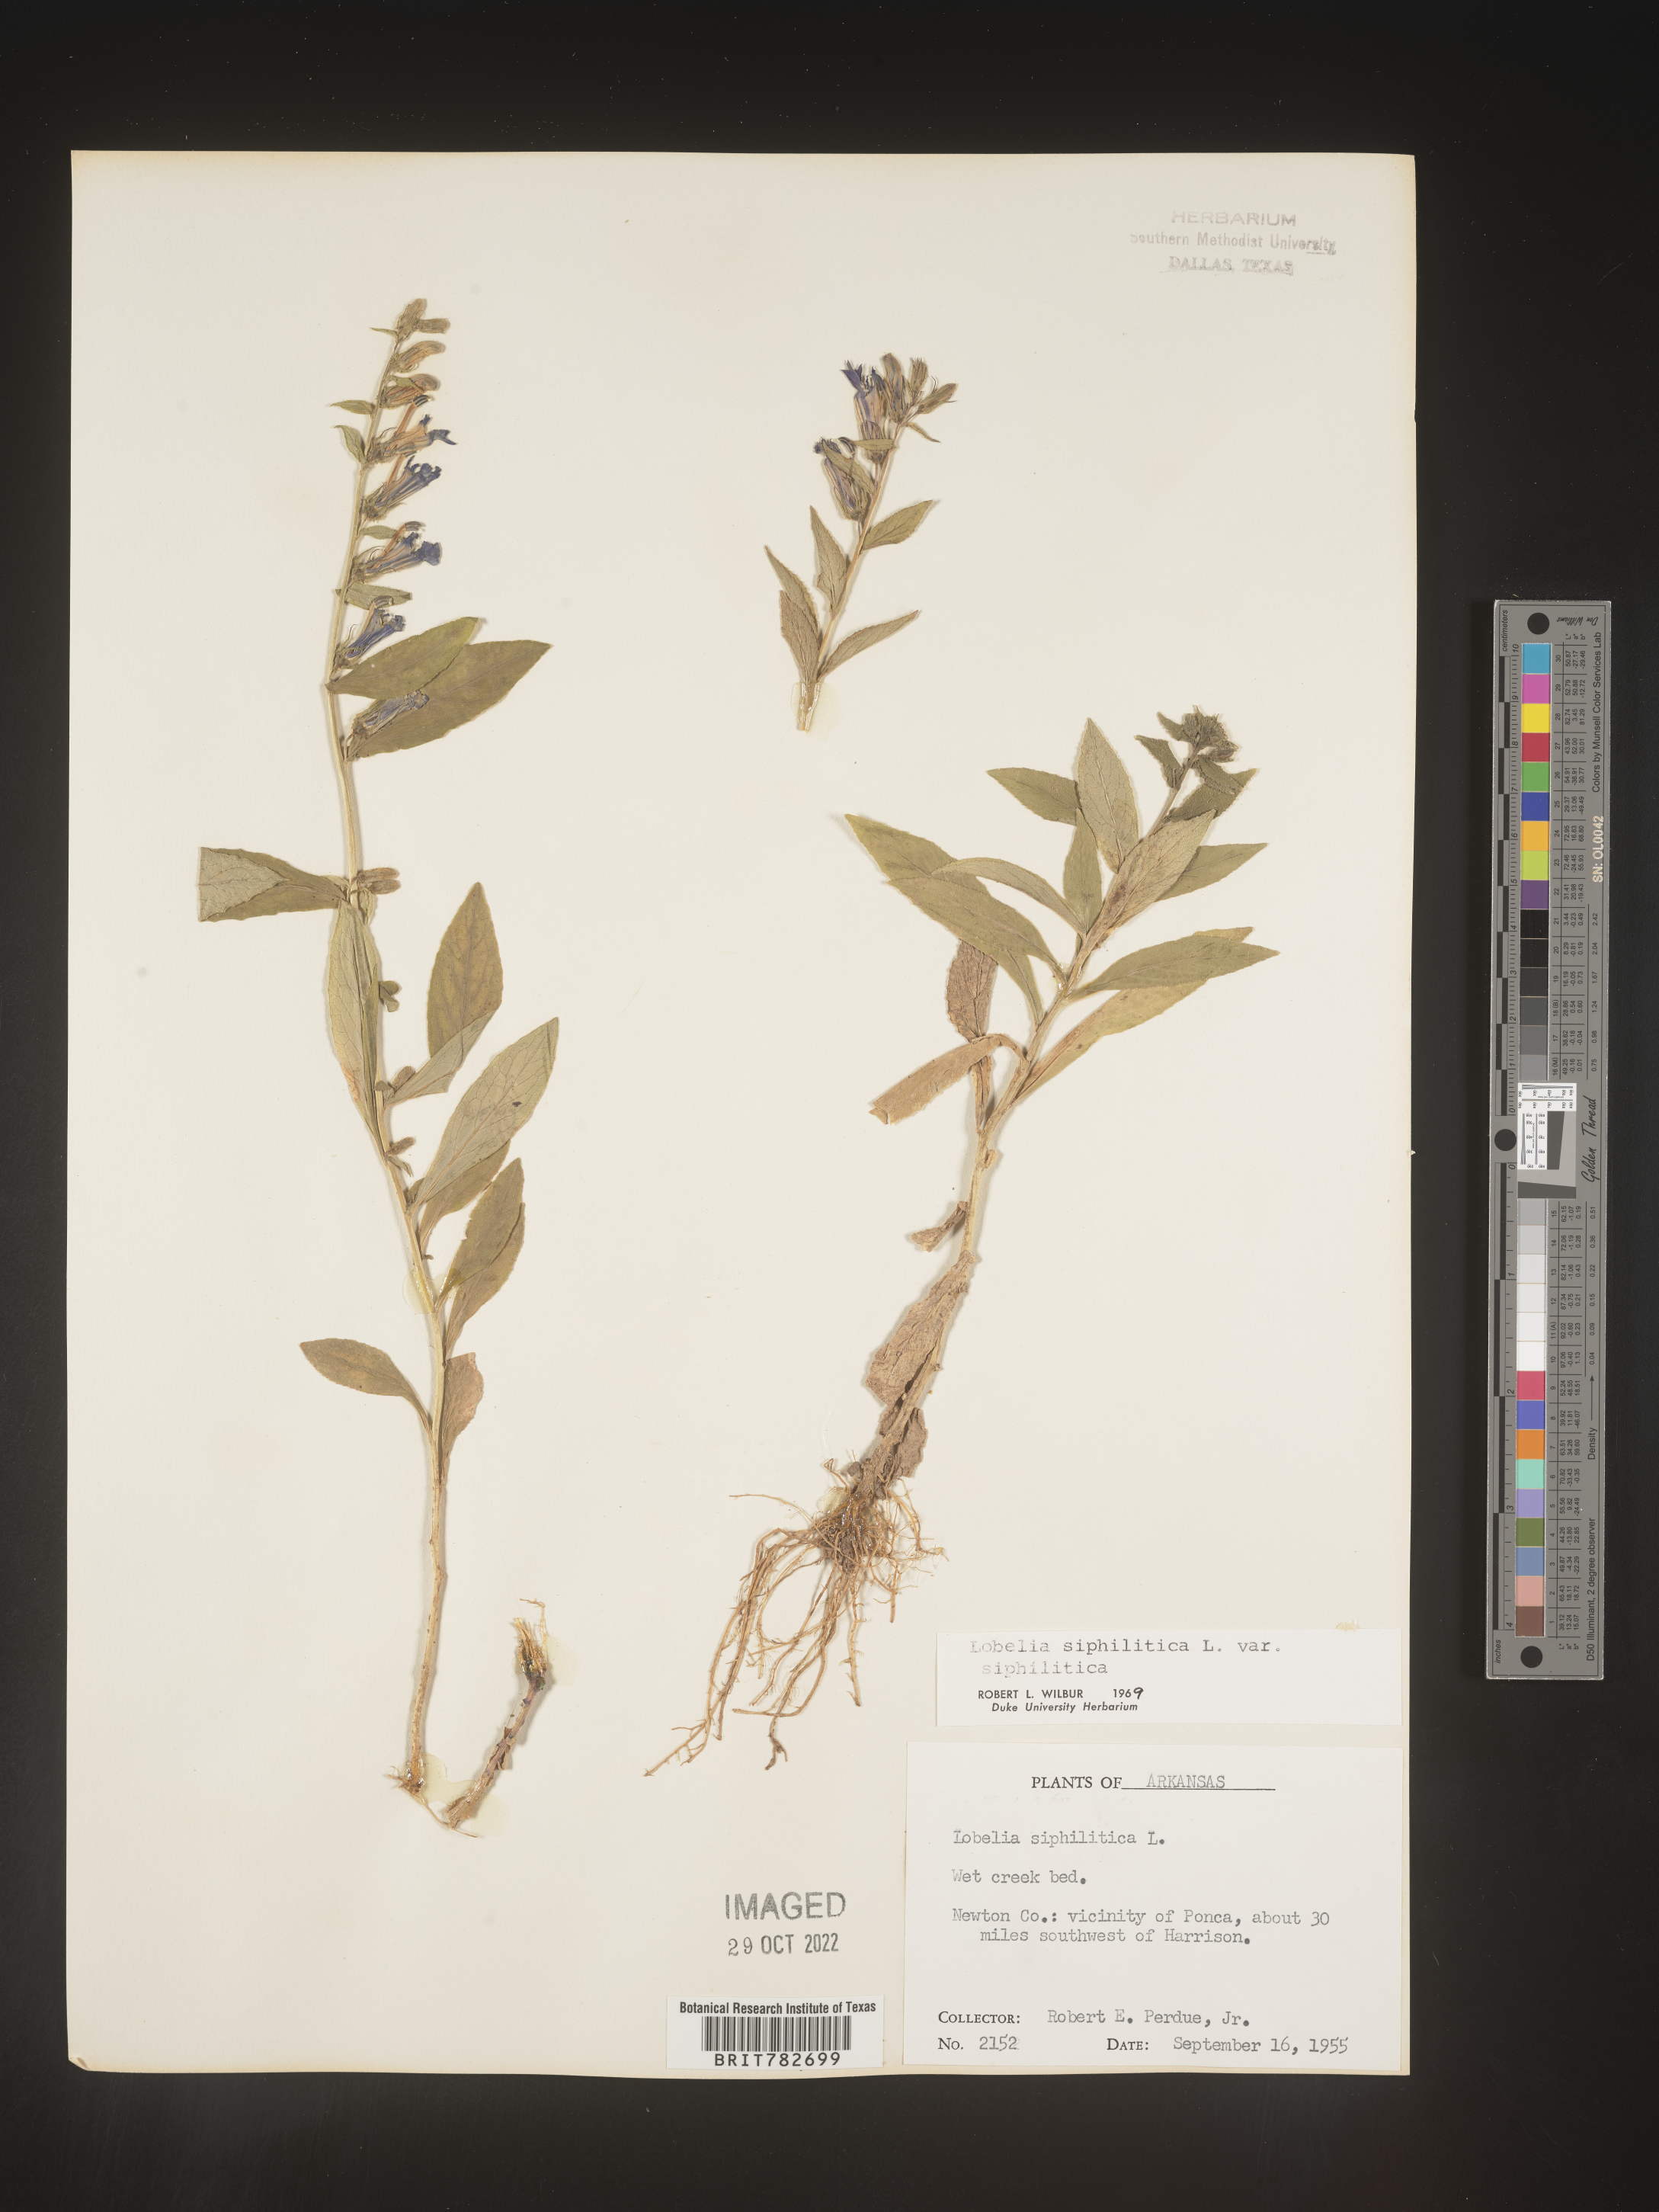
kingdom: Plantae
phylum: Tracheophyta
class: Magnoliopsida
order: Asterales
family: Campanulaceae
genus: Lobelia
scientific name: Lobelia siphilitica
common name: Great lobelia
